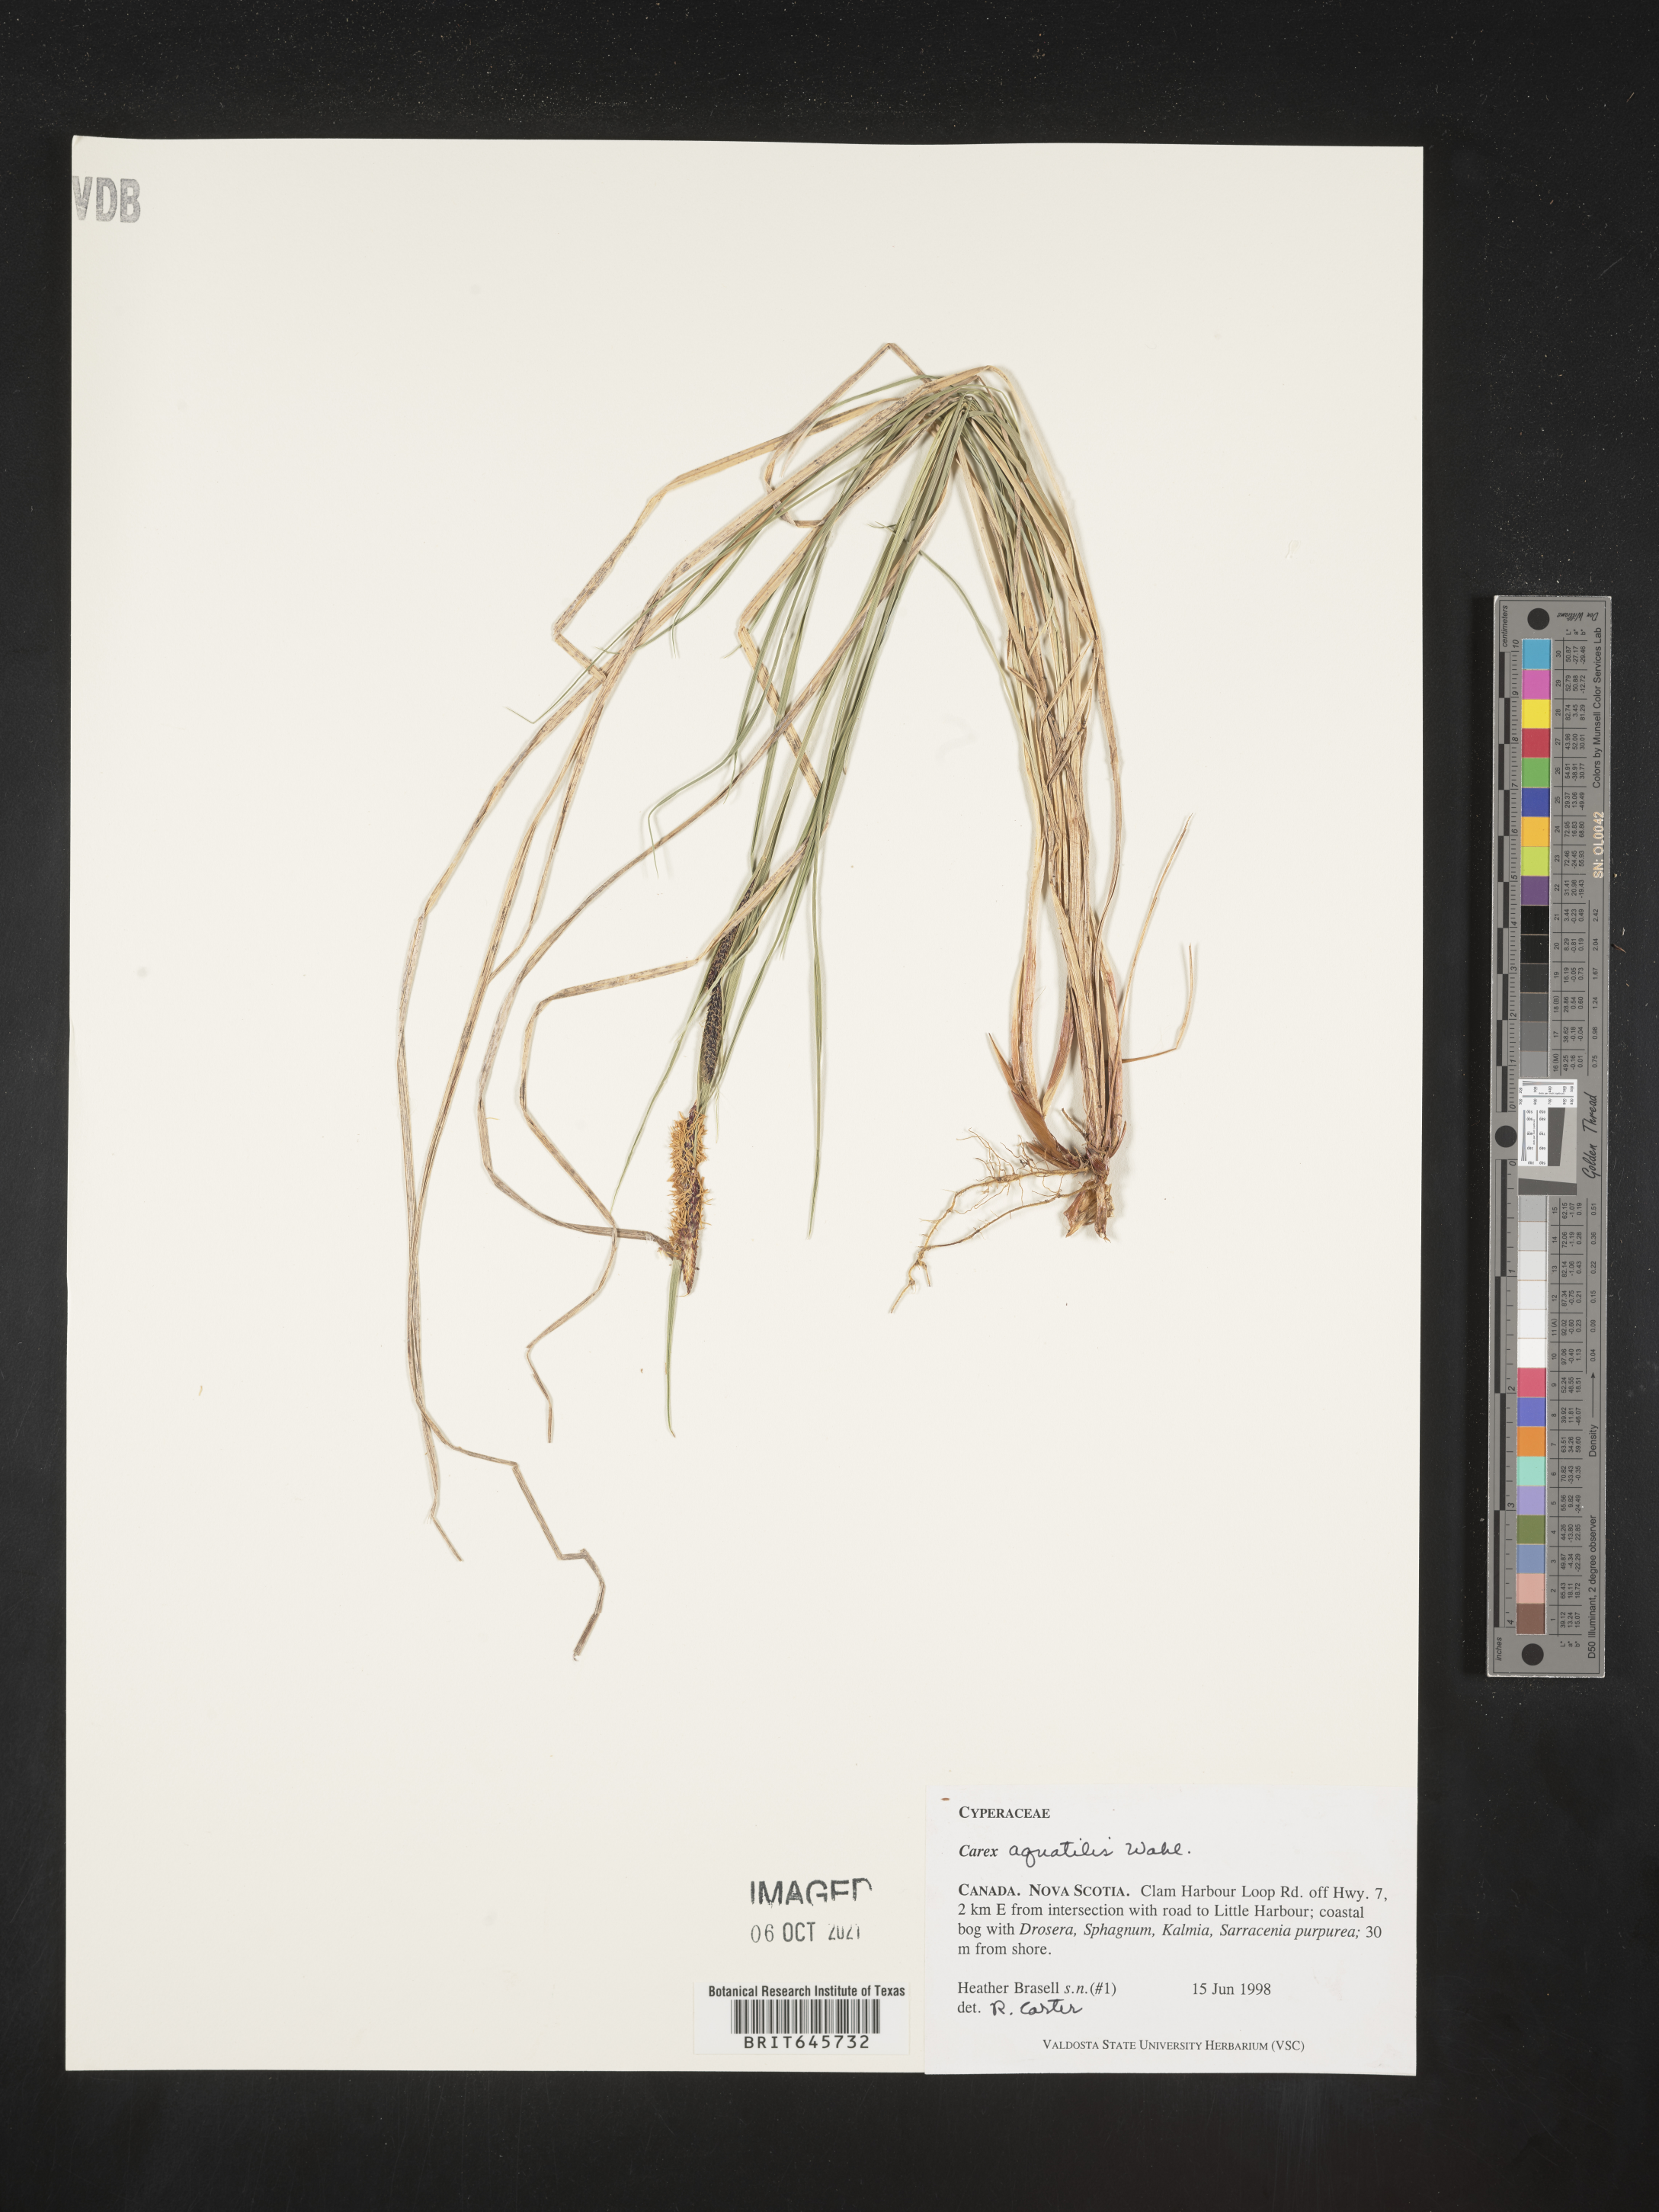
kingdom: Plantae
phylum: Tracheophyta
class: Liliopsida
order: Poales
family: Cyperaceae
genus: Carex
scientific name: Carex aquatilis
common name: Water sedge
